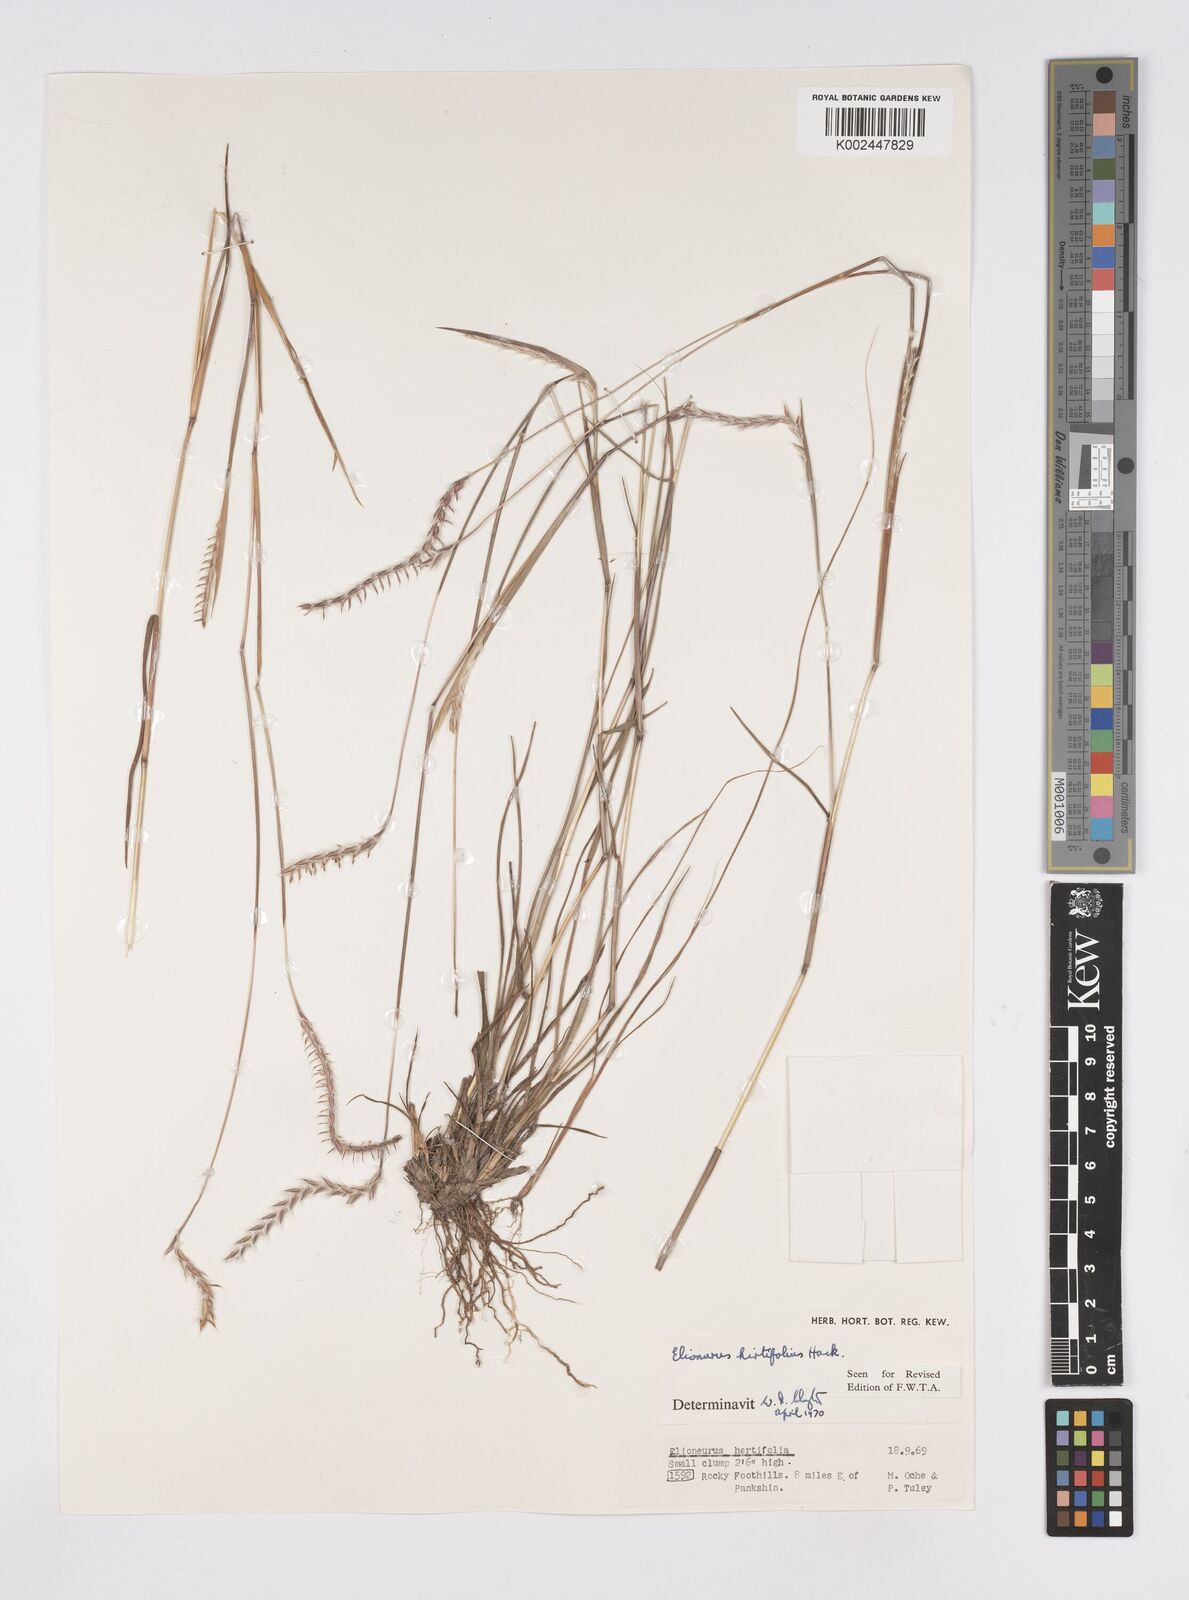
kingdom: Plantae
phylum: Tracheophyta
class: Liliopsida
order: Poales
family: Poaceae
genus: Elionurus
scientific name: Elionurus hirtifolius
